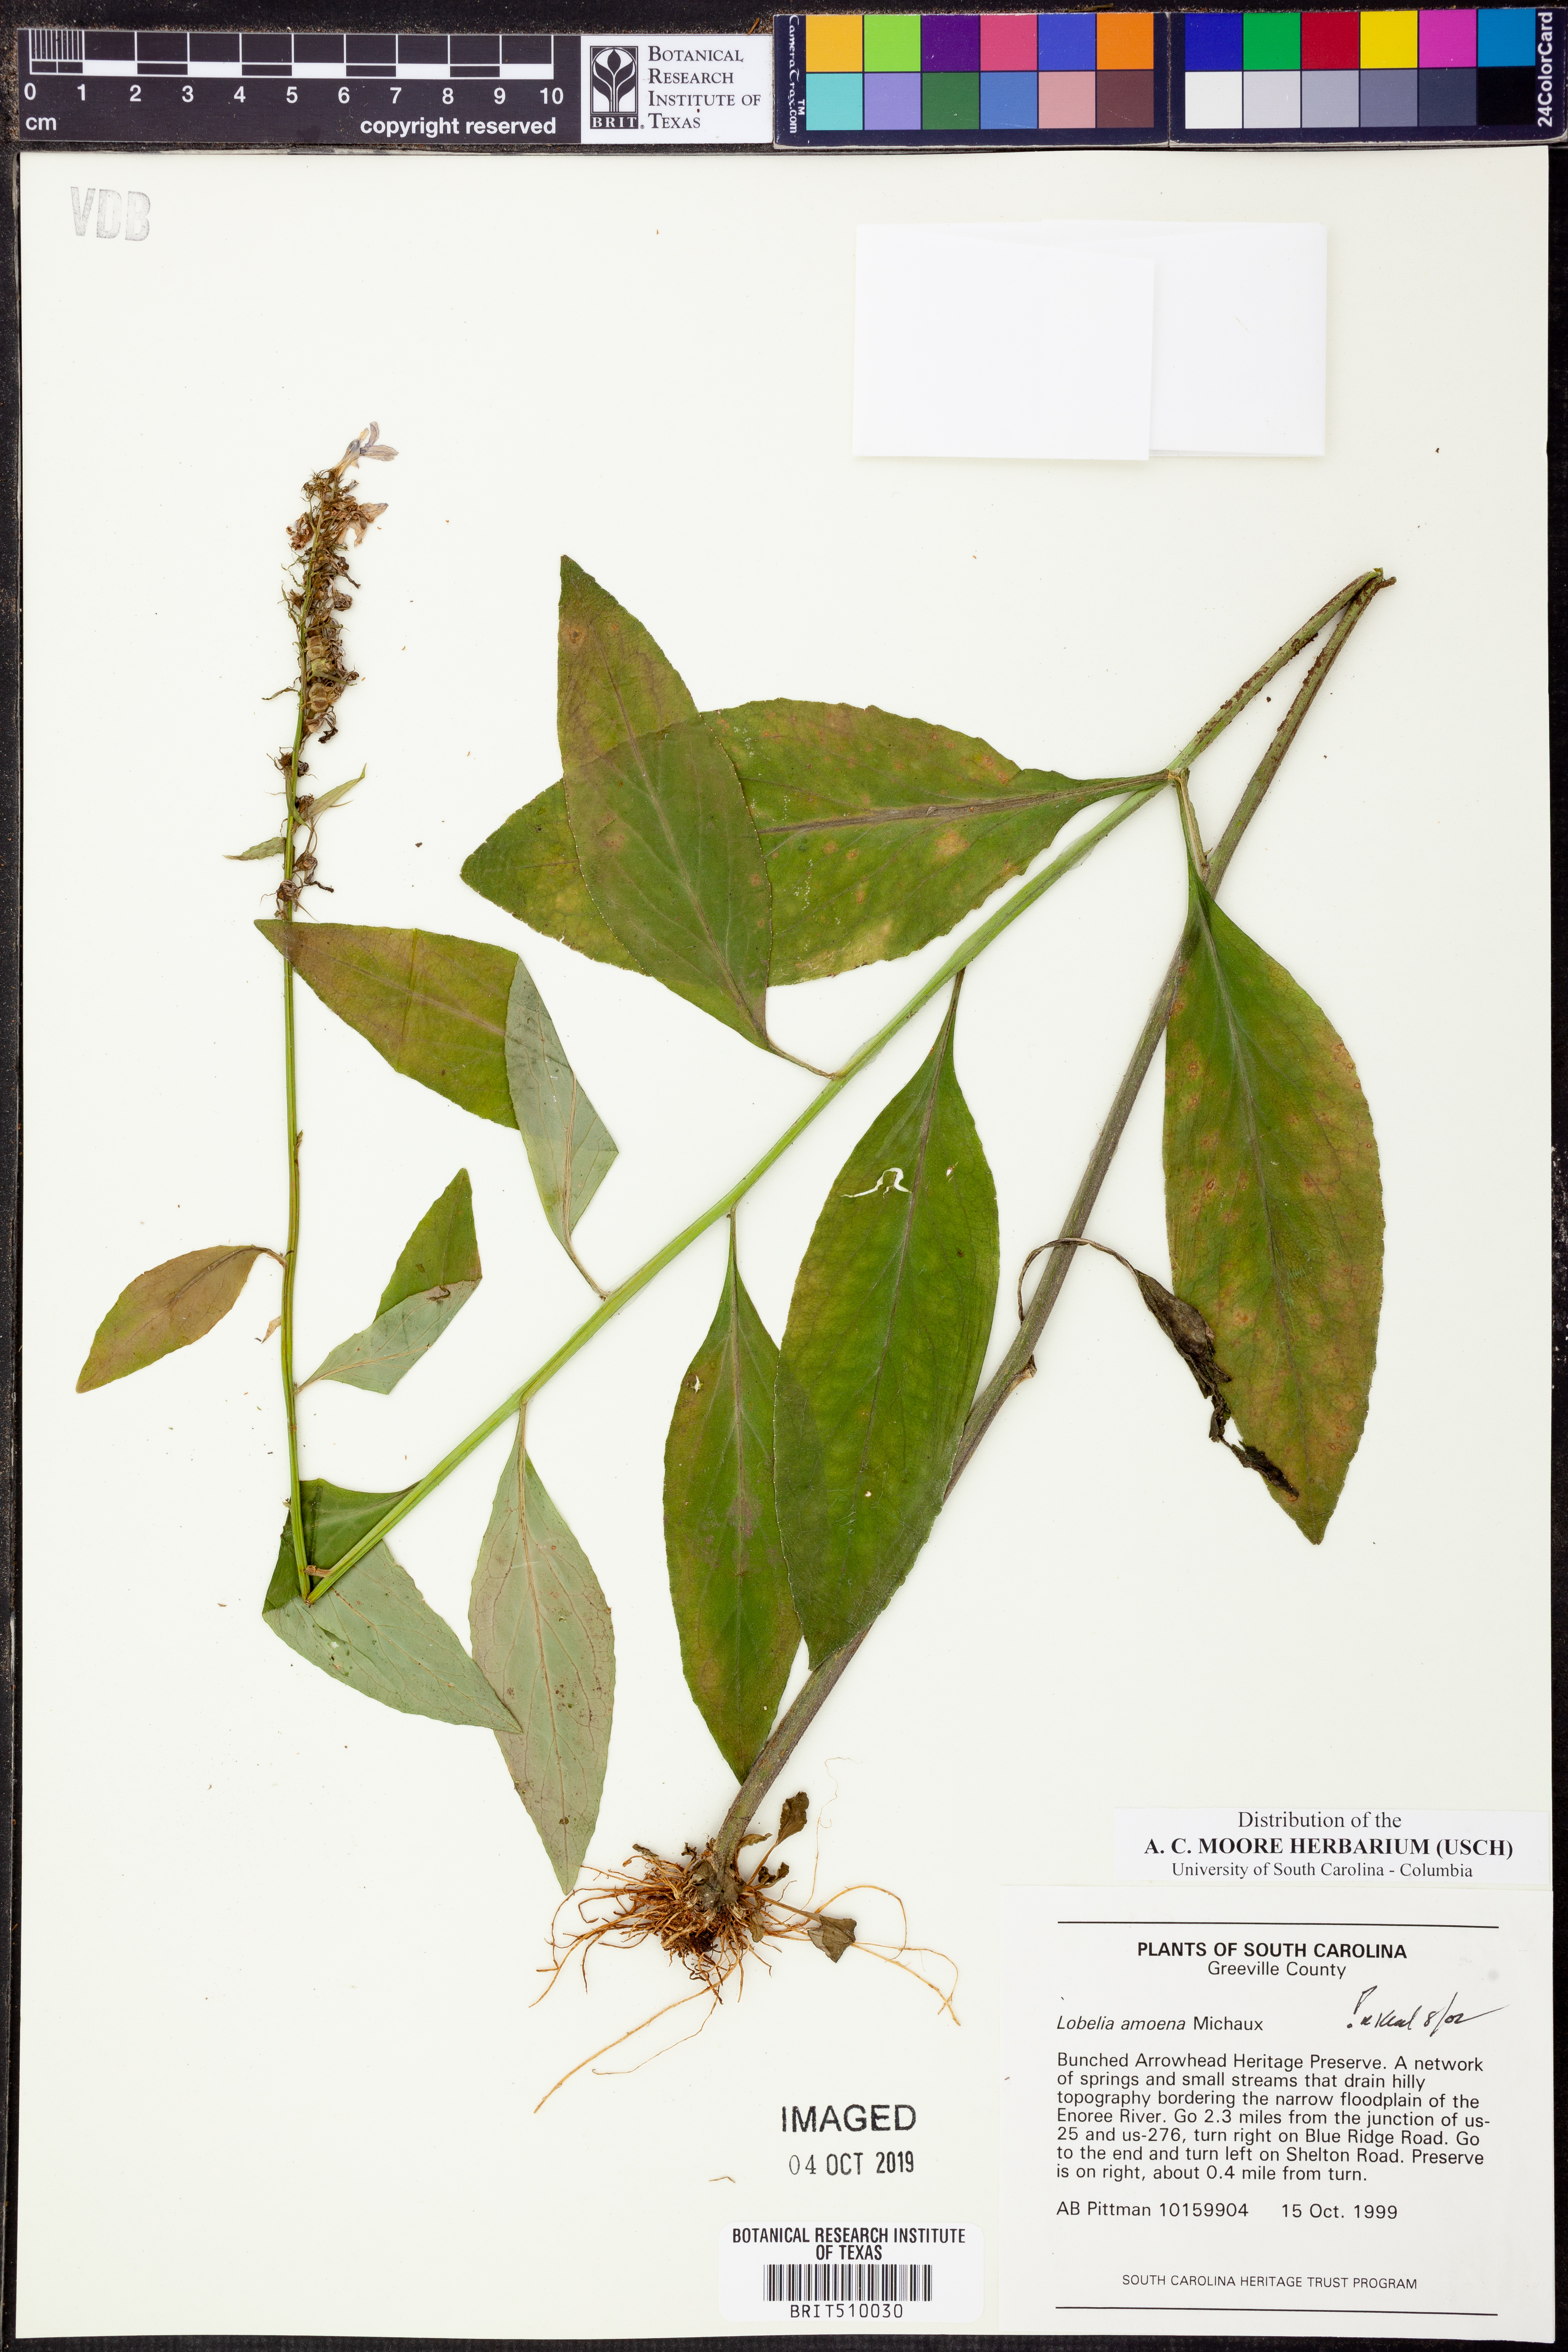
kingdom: Plantae
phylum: Tracheophyta
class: Magnoliopsida
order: Asterales
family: Campanulaceae
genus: Lobelia
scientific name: Lobelia amoena
